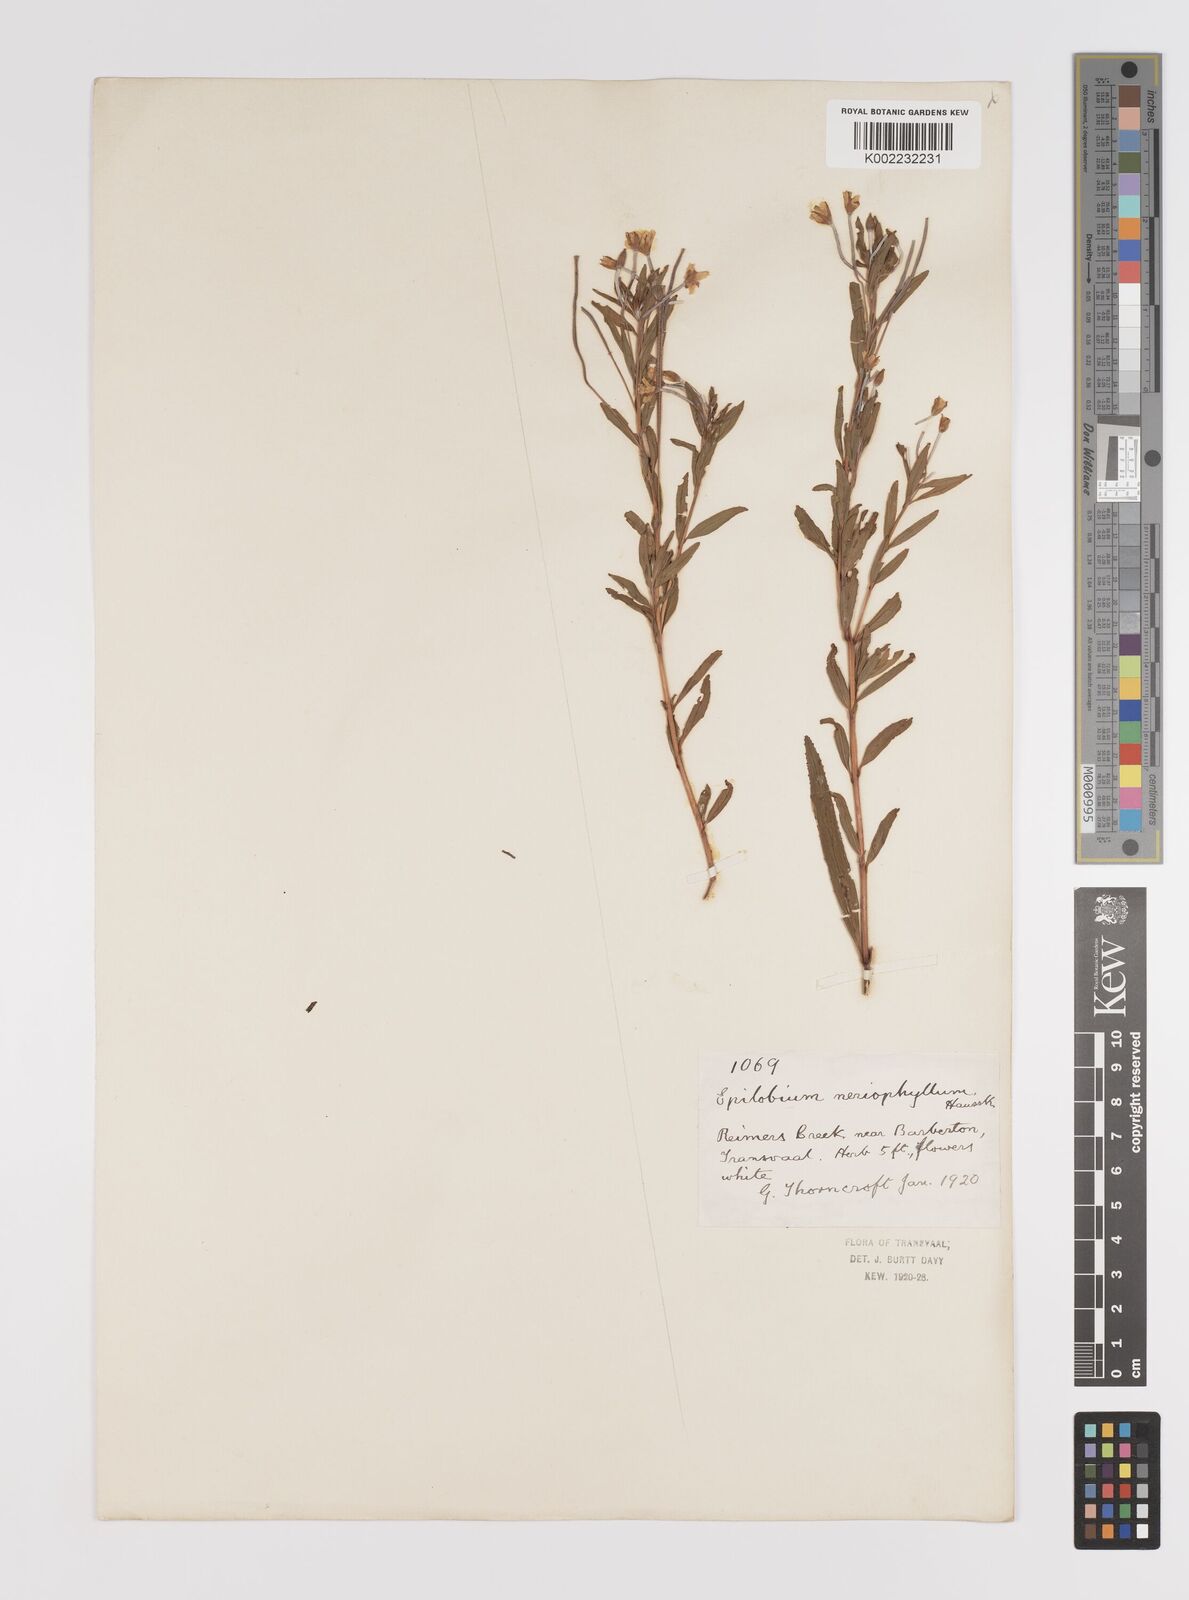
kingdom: Plantae
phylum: Tracheophyta
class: Magnoliopsida
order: Myrtales
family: Onagraceae
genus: Epilobium
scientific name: Epilobium salignum
